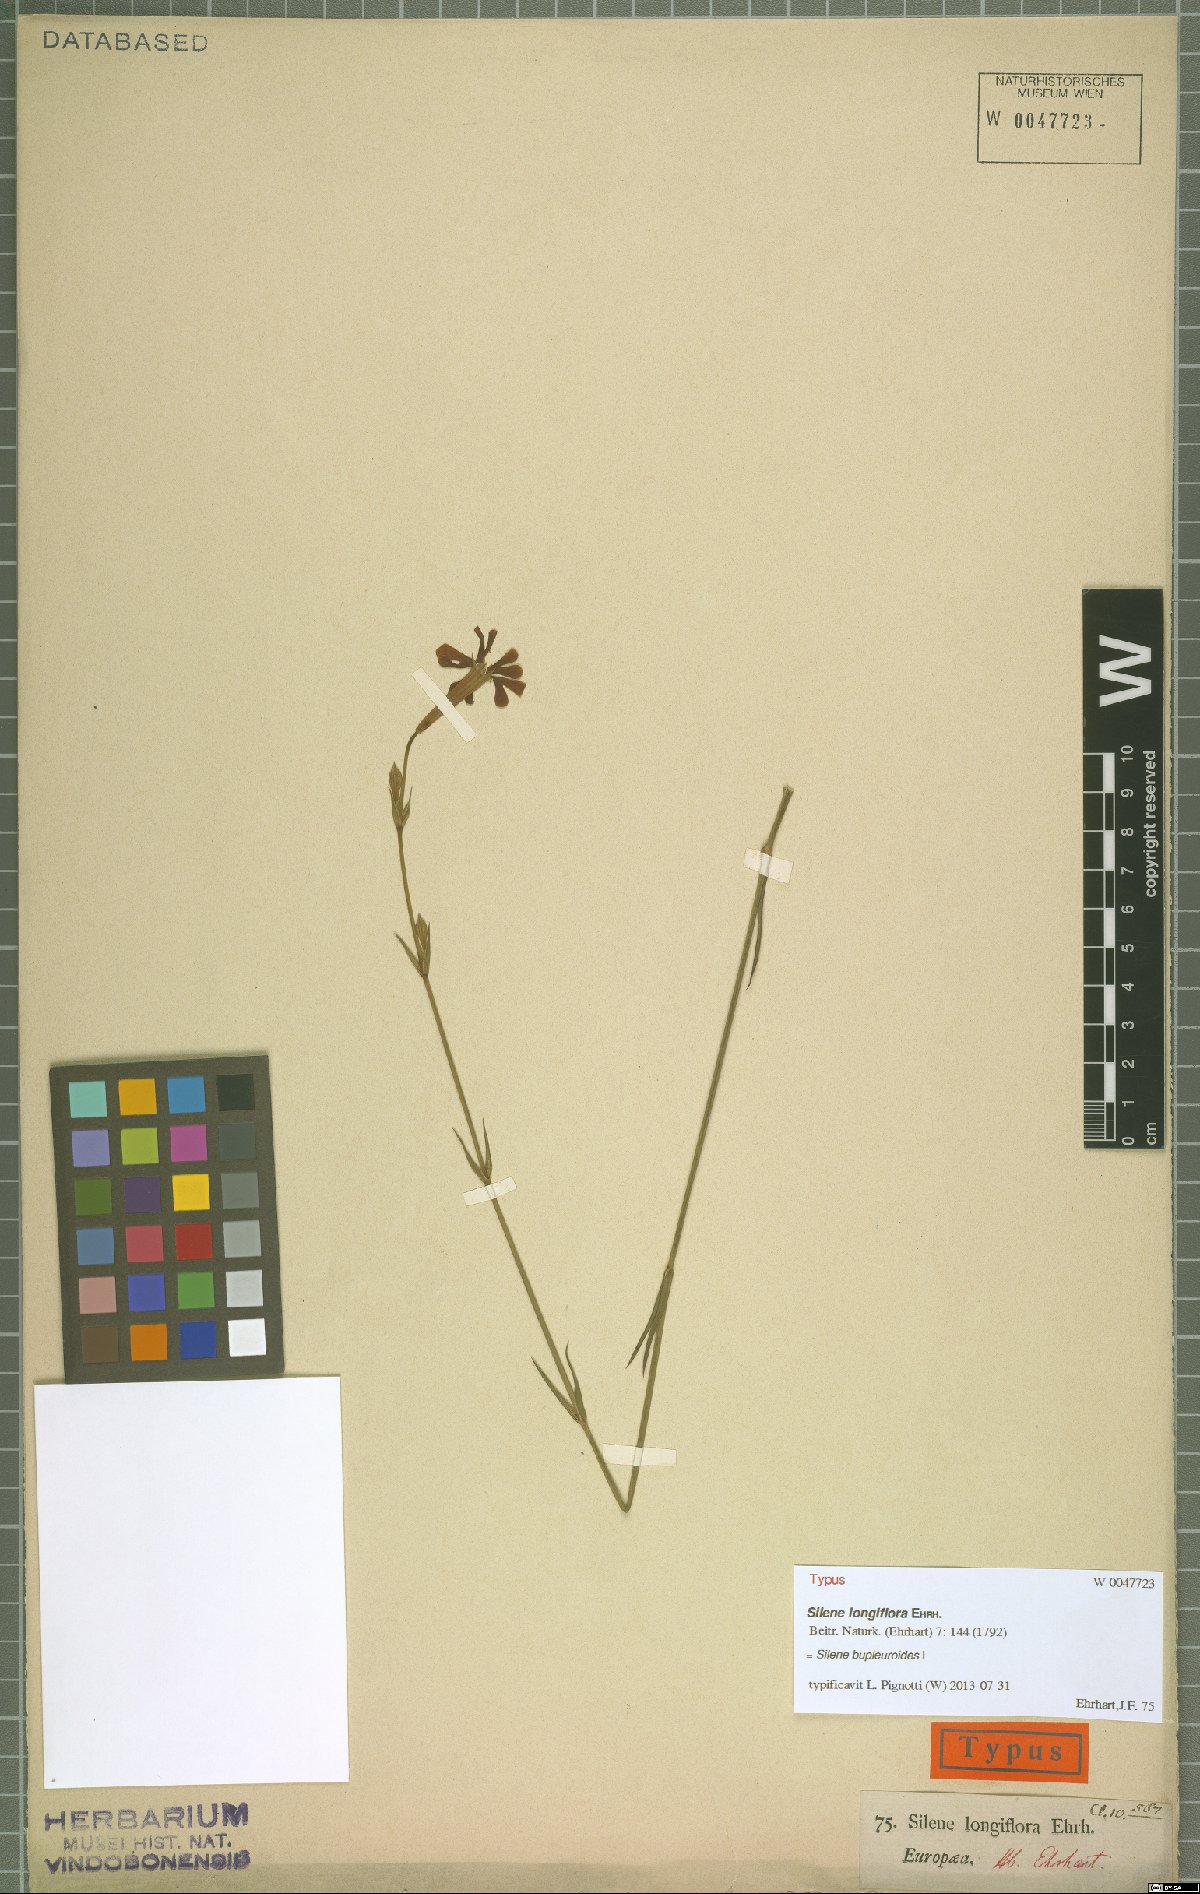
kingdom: Plantae
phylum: Tracheophyta
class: Magnoliopsida
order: Caryophyllales
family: Caryophyllaceae
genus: Silene
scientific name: Silene bupleuroides
